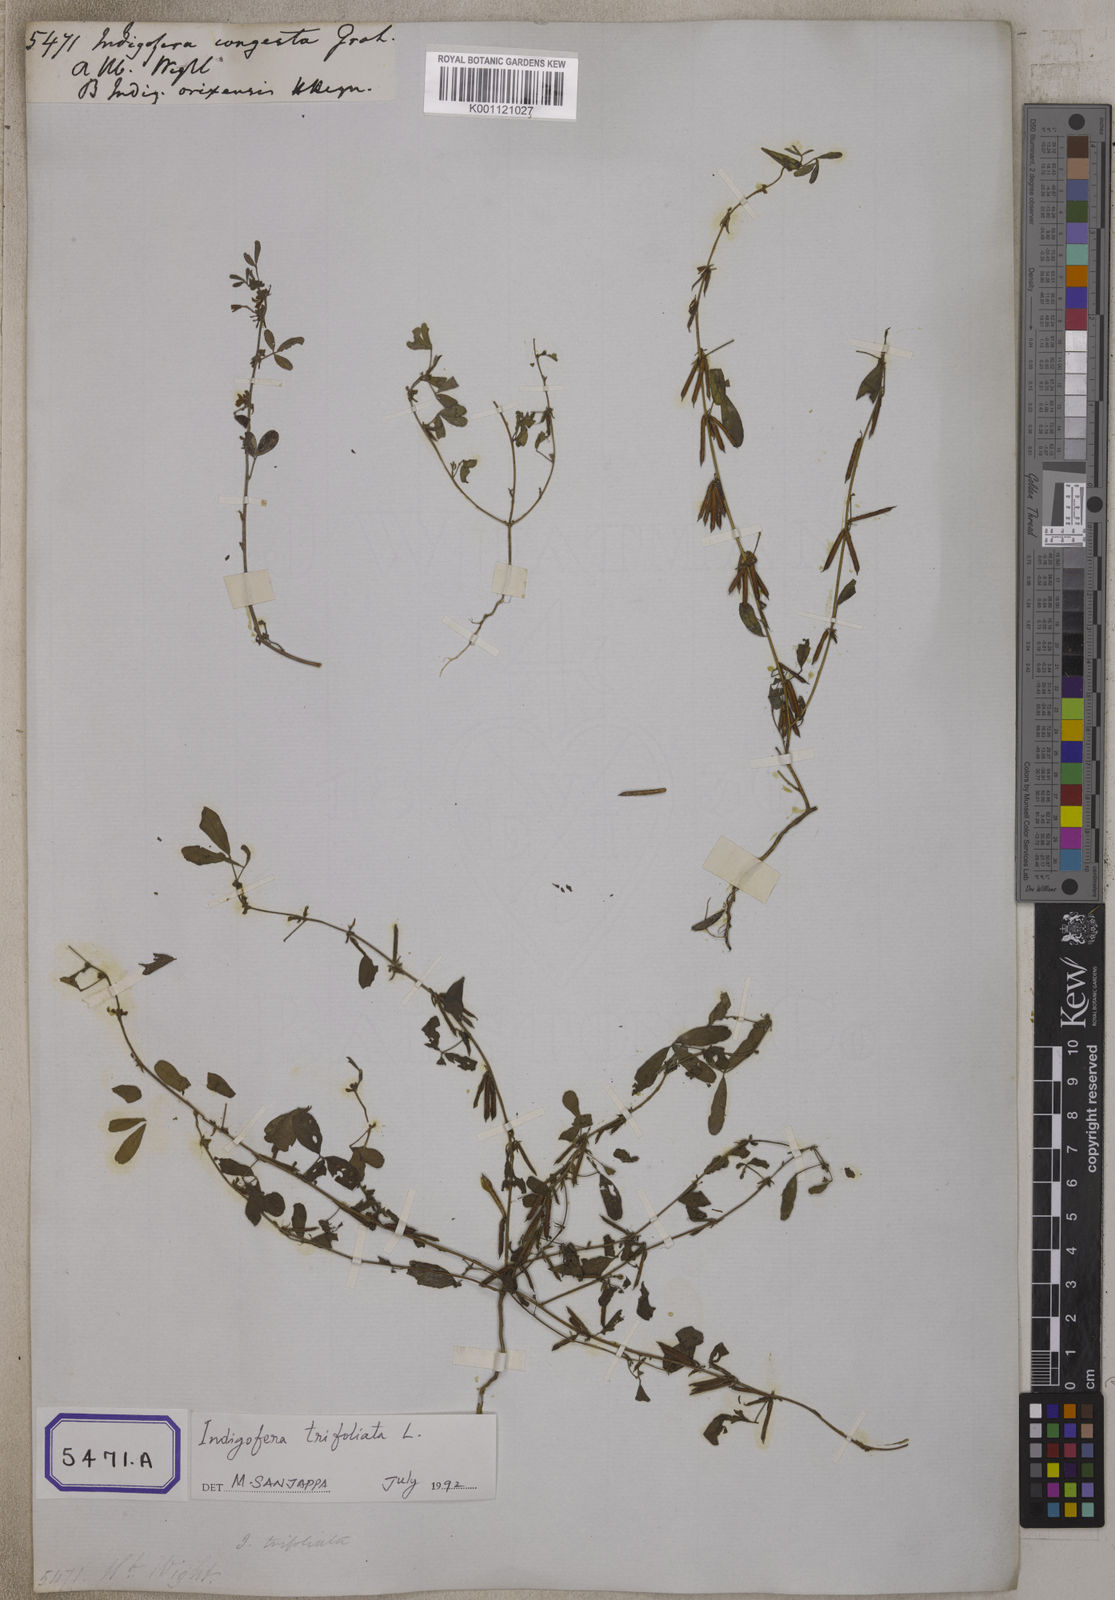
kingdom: Plantae
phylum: Tracheophyta
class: Magnoliopsida
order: Fabales
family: Fabaceae
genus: Indigofera
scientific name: Indigofera trifoliata
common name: Threeleaf indigo
